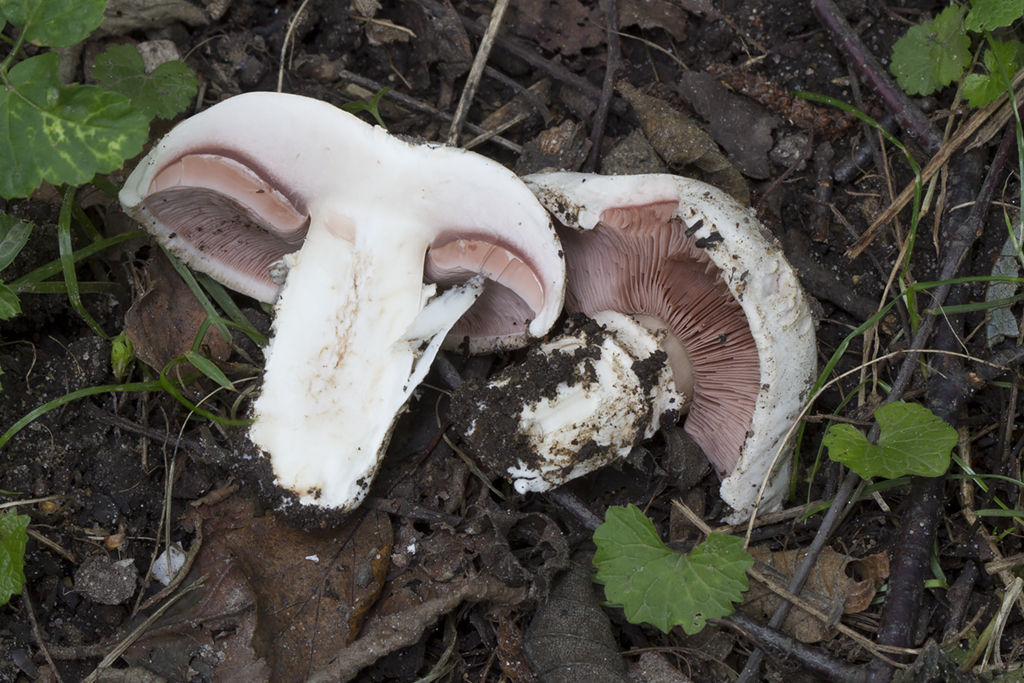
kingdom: Fungi
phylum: Basidiomycota
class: Agaricomycetes
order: Agaricales
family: Agaricaceae
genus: Agaricus
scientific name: Agaricus bitorquis
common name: vej-champignon
